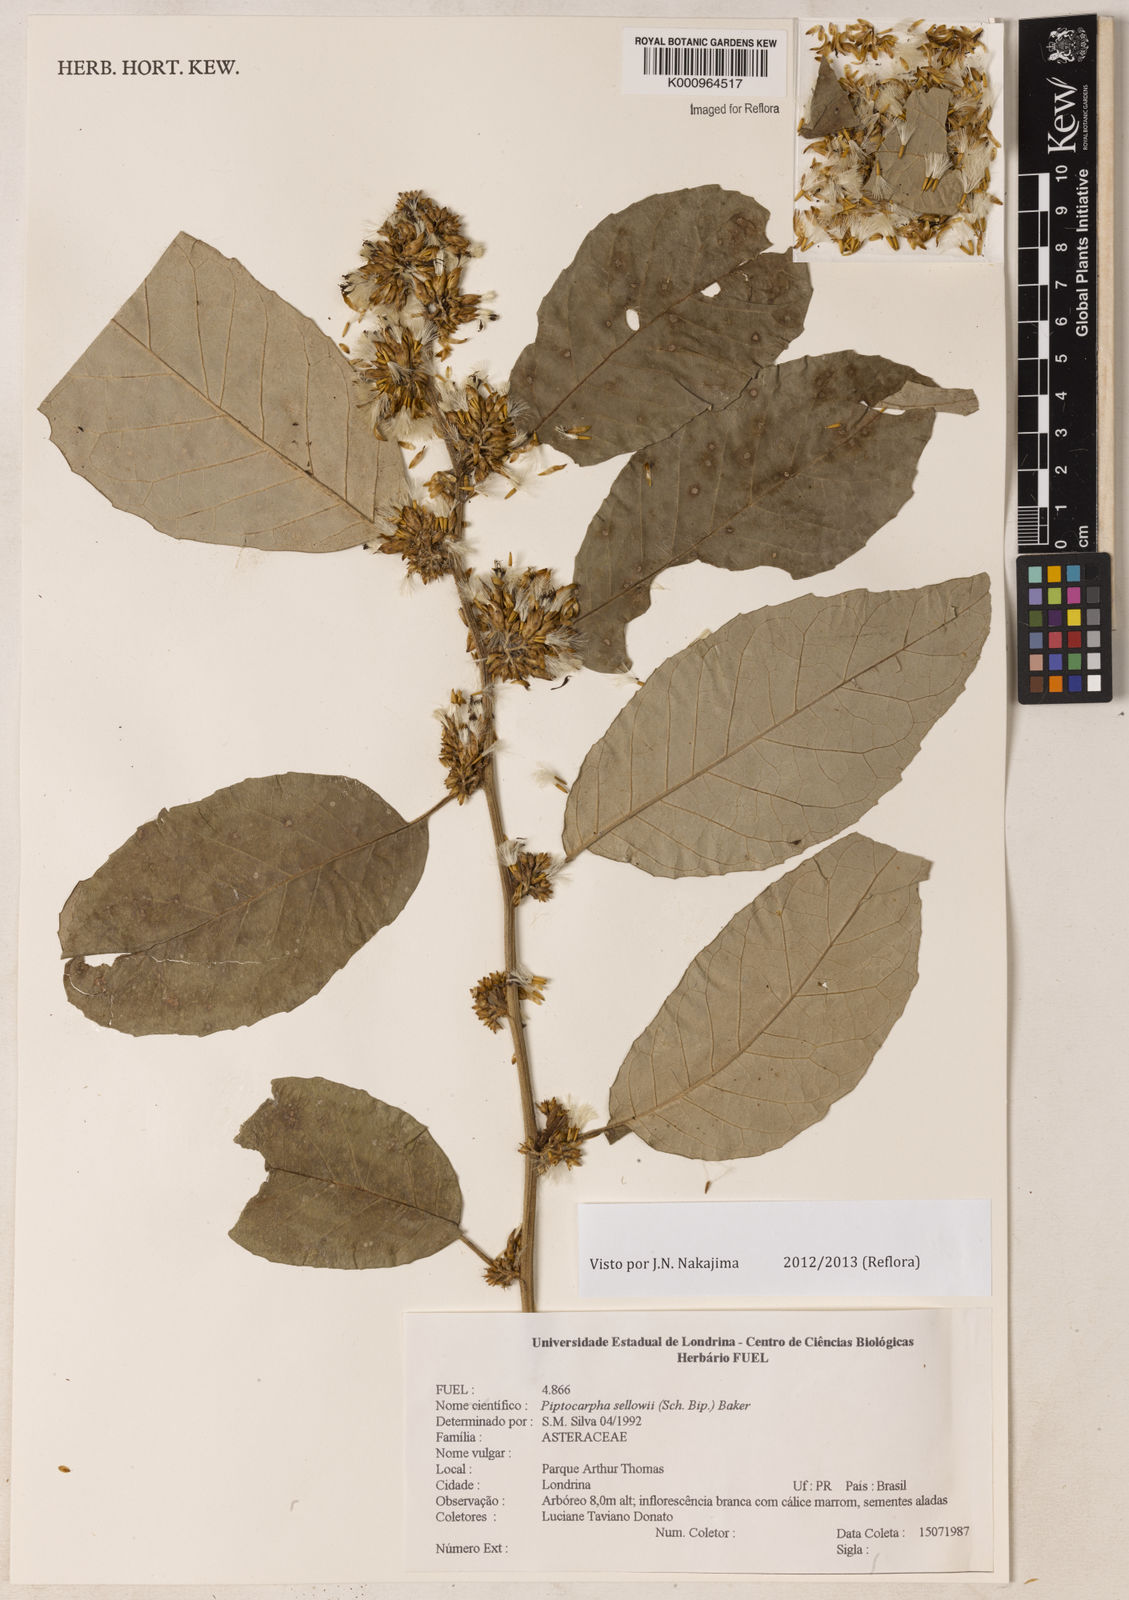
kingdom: Plantae
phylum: Tracheophyta
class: Magnoliopsida
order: Asterales
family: Asteraceae
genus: Piptocarpha
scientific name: Piptocarpha
